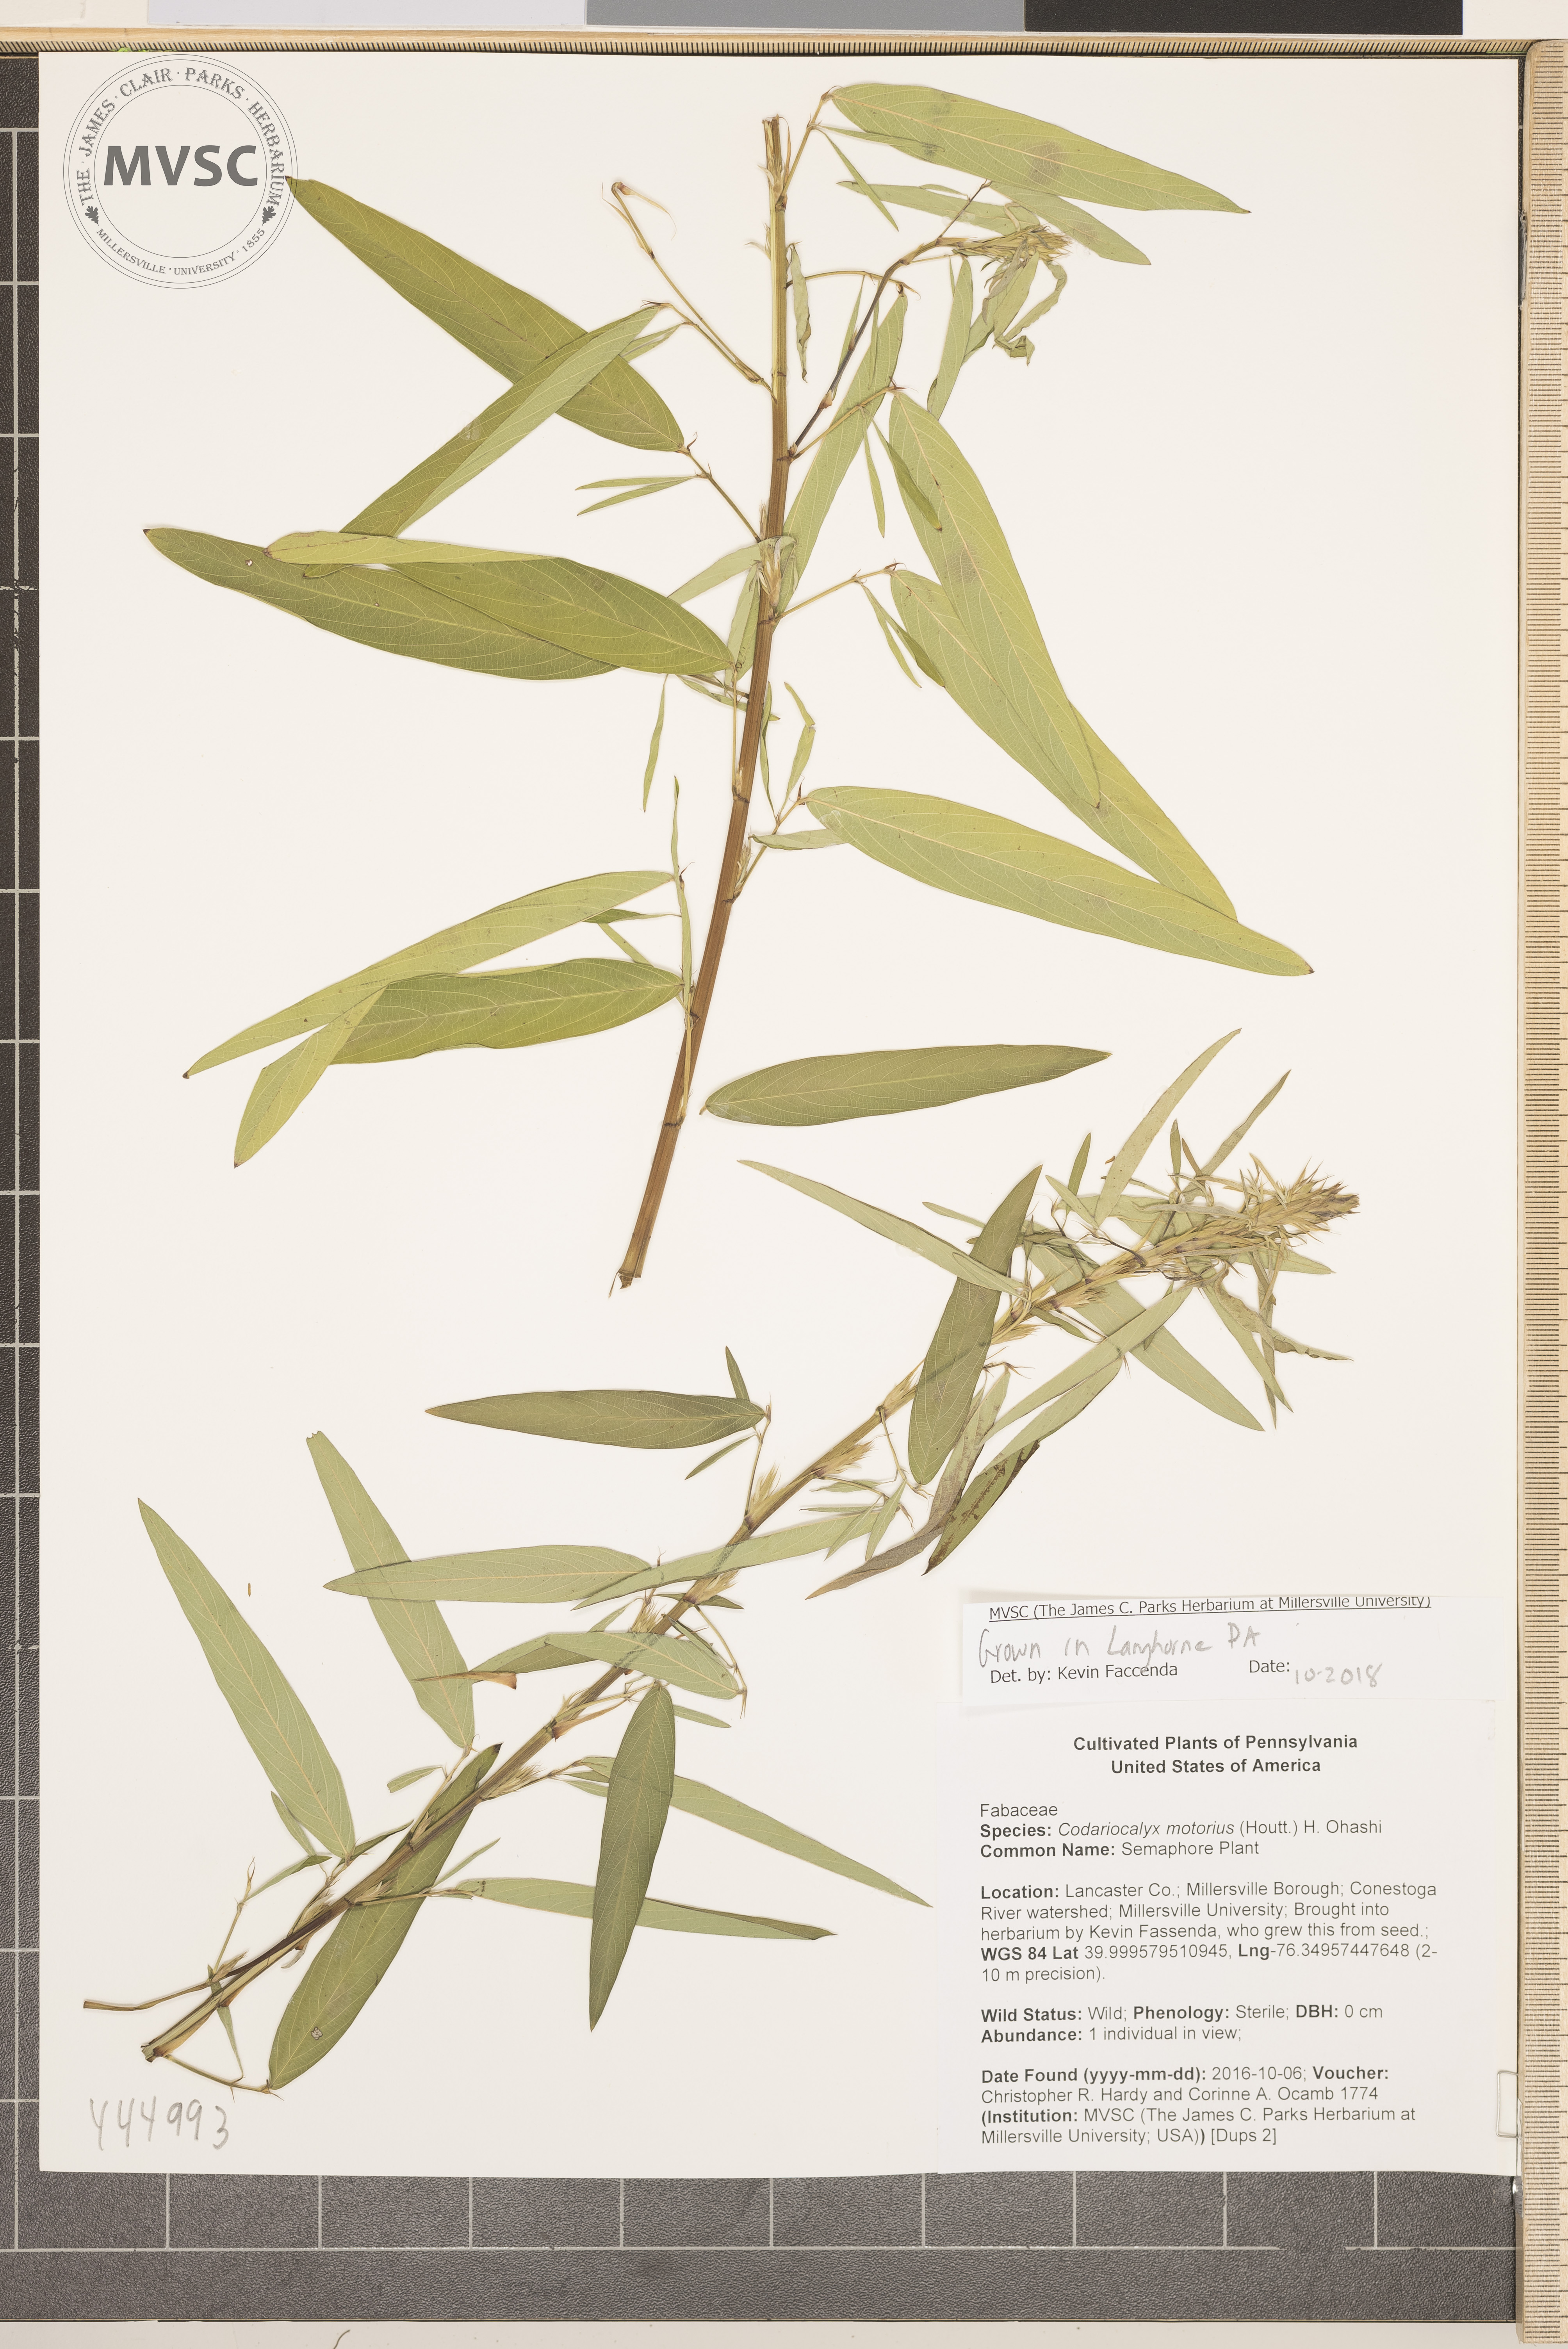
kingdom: Plantae
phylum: Tracheophyta
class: Magnoliopsida
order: Fabales
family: Fabaceae
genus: Codariocalyx
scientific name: Codariocalyx motorius
